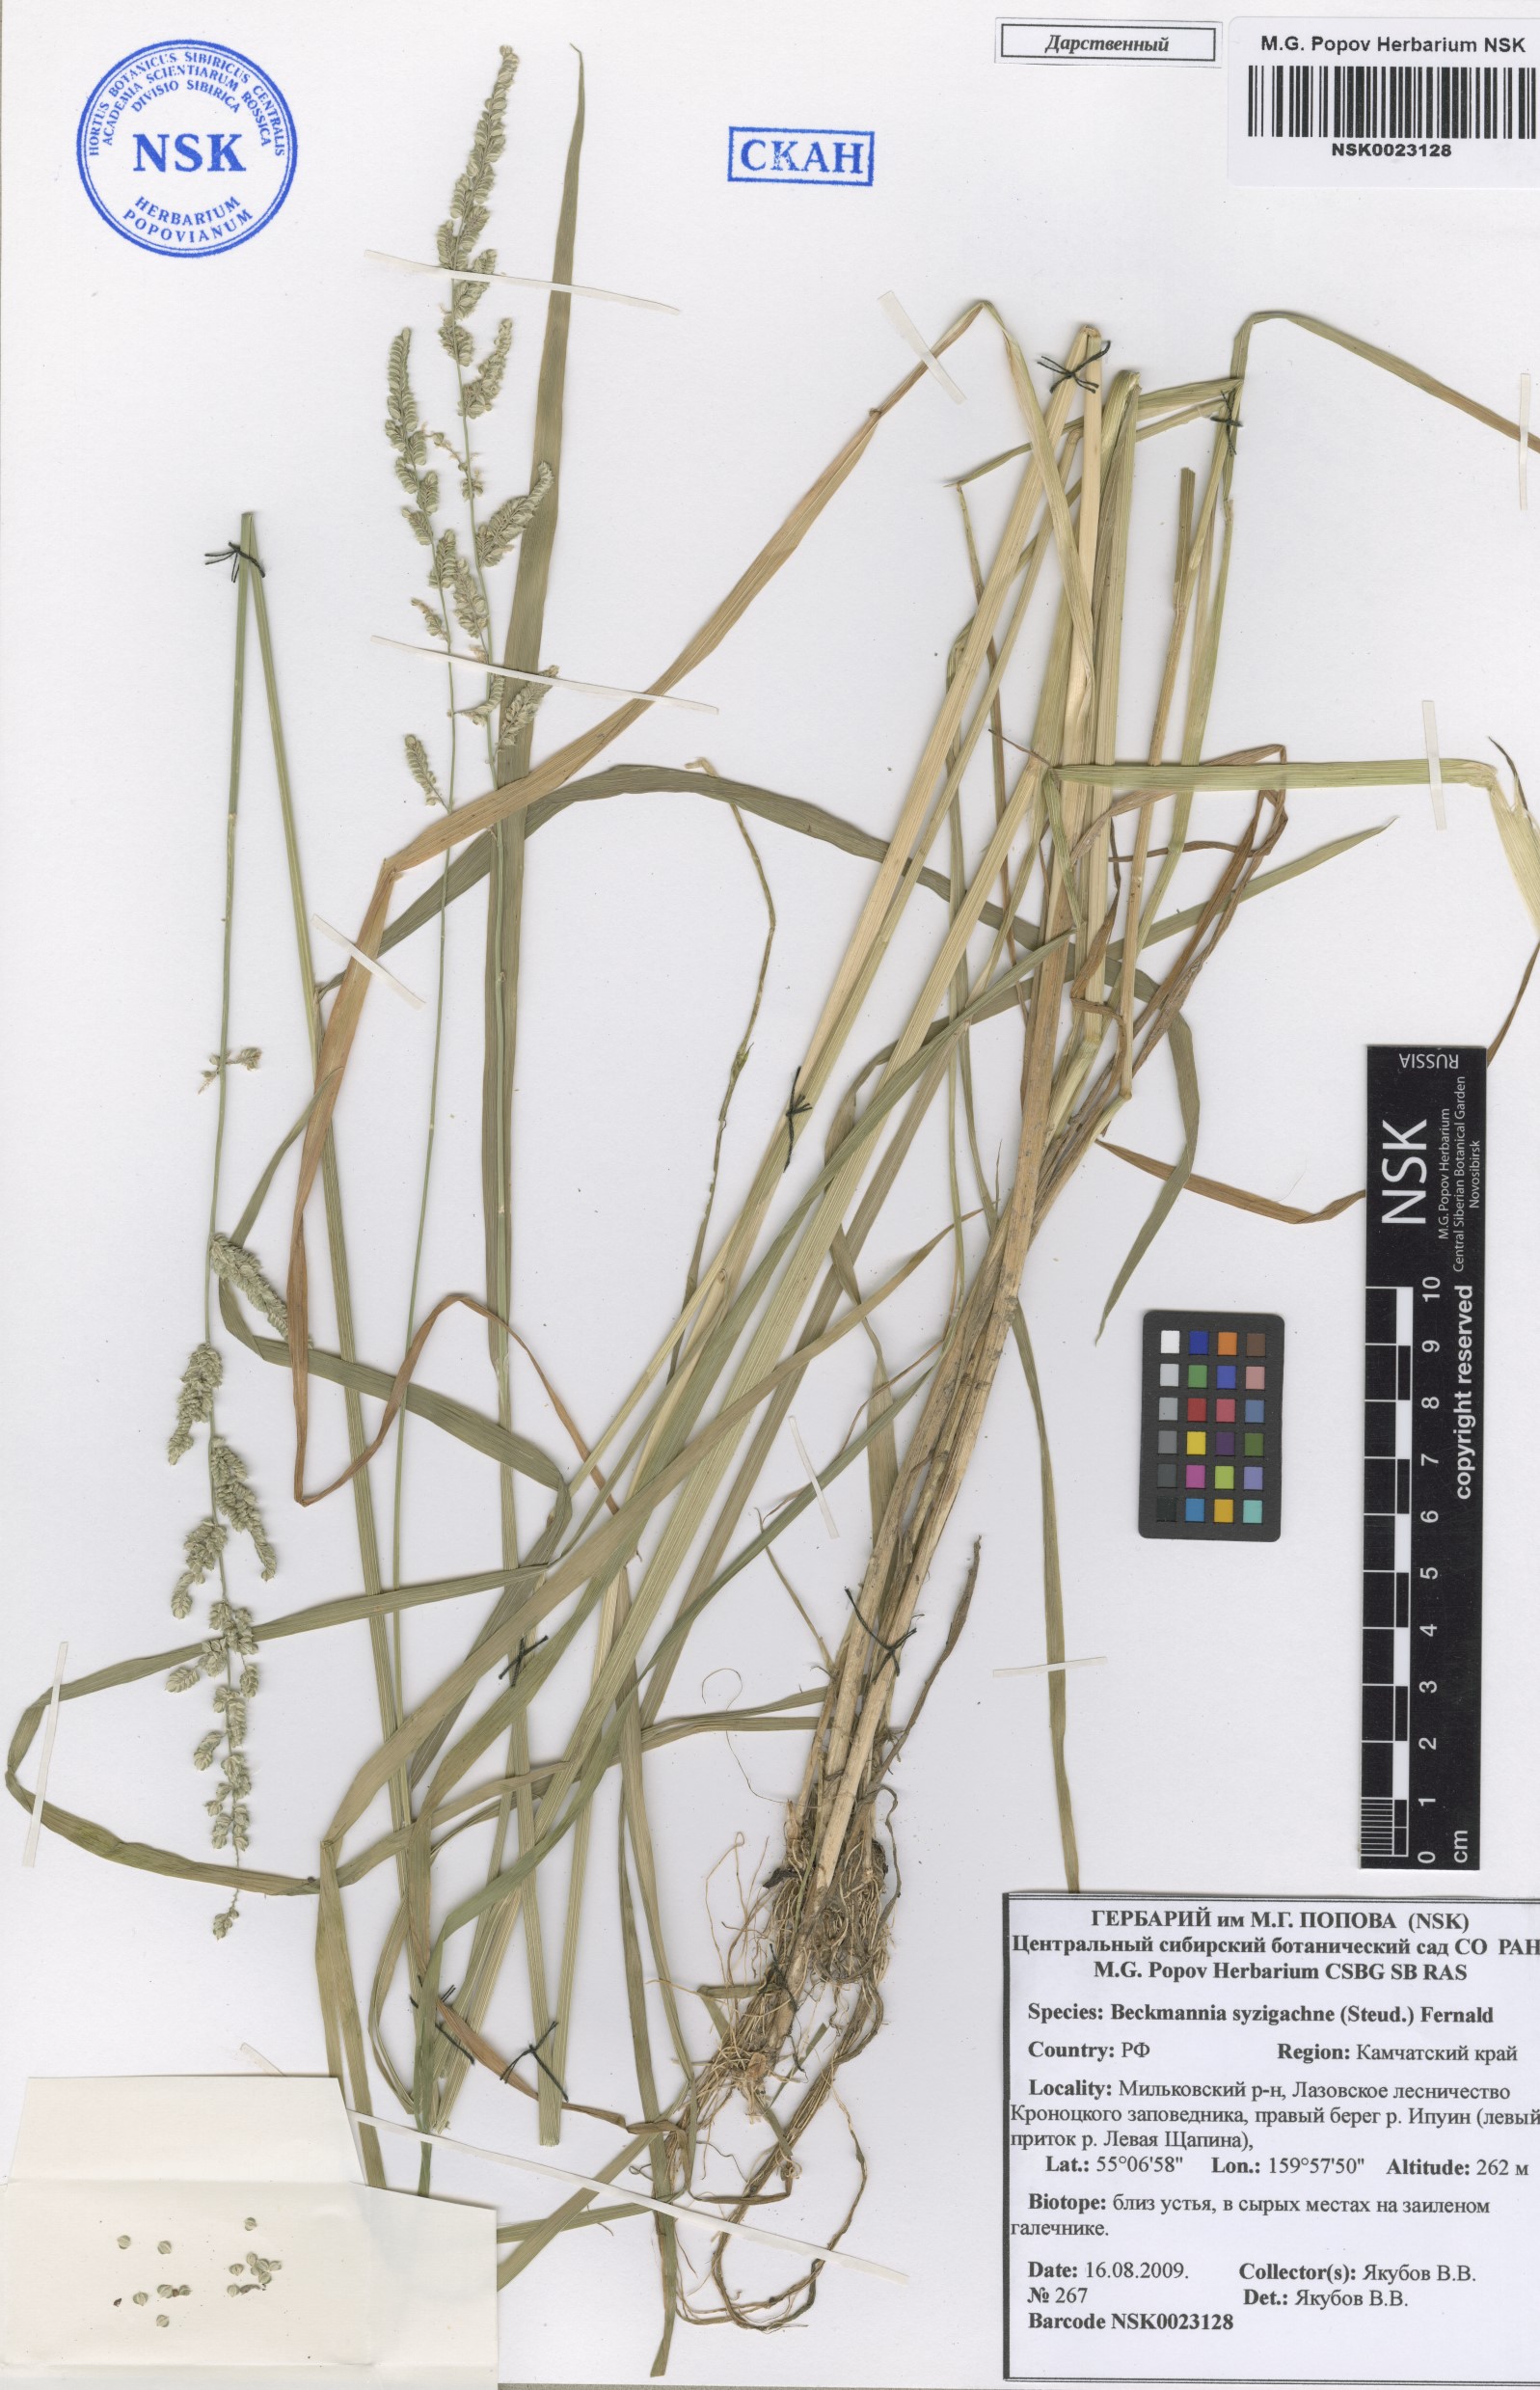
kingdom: Plantae
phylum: Tracheophyta
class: Liliopsida
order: Poales
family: Poaceae
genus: Beckmannia
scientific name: Beckmannia syzigachne
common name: American slough-grass
